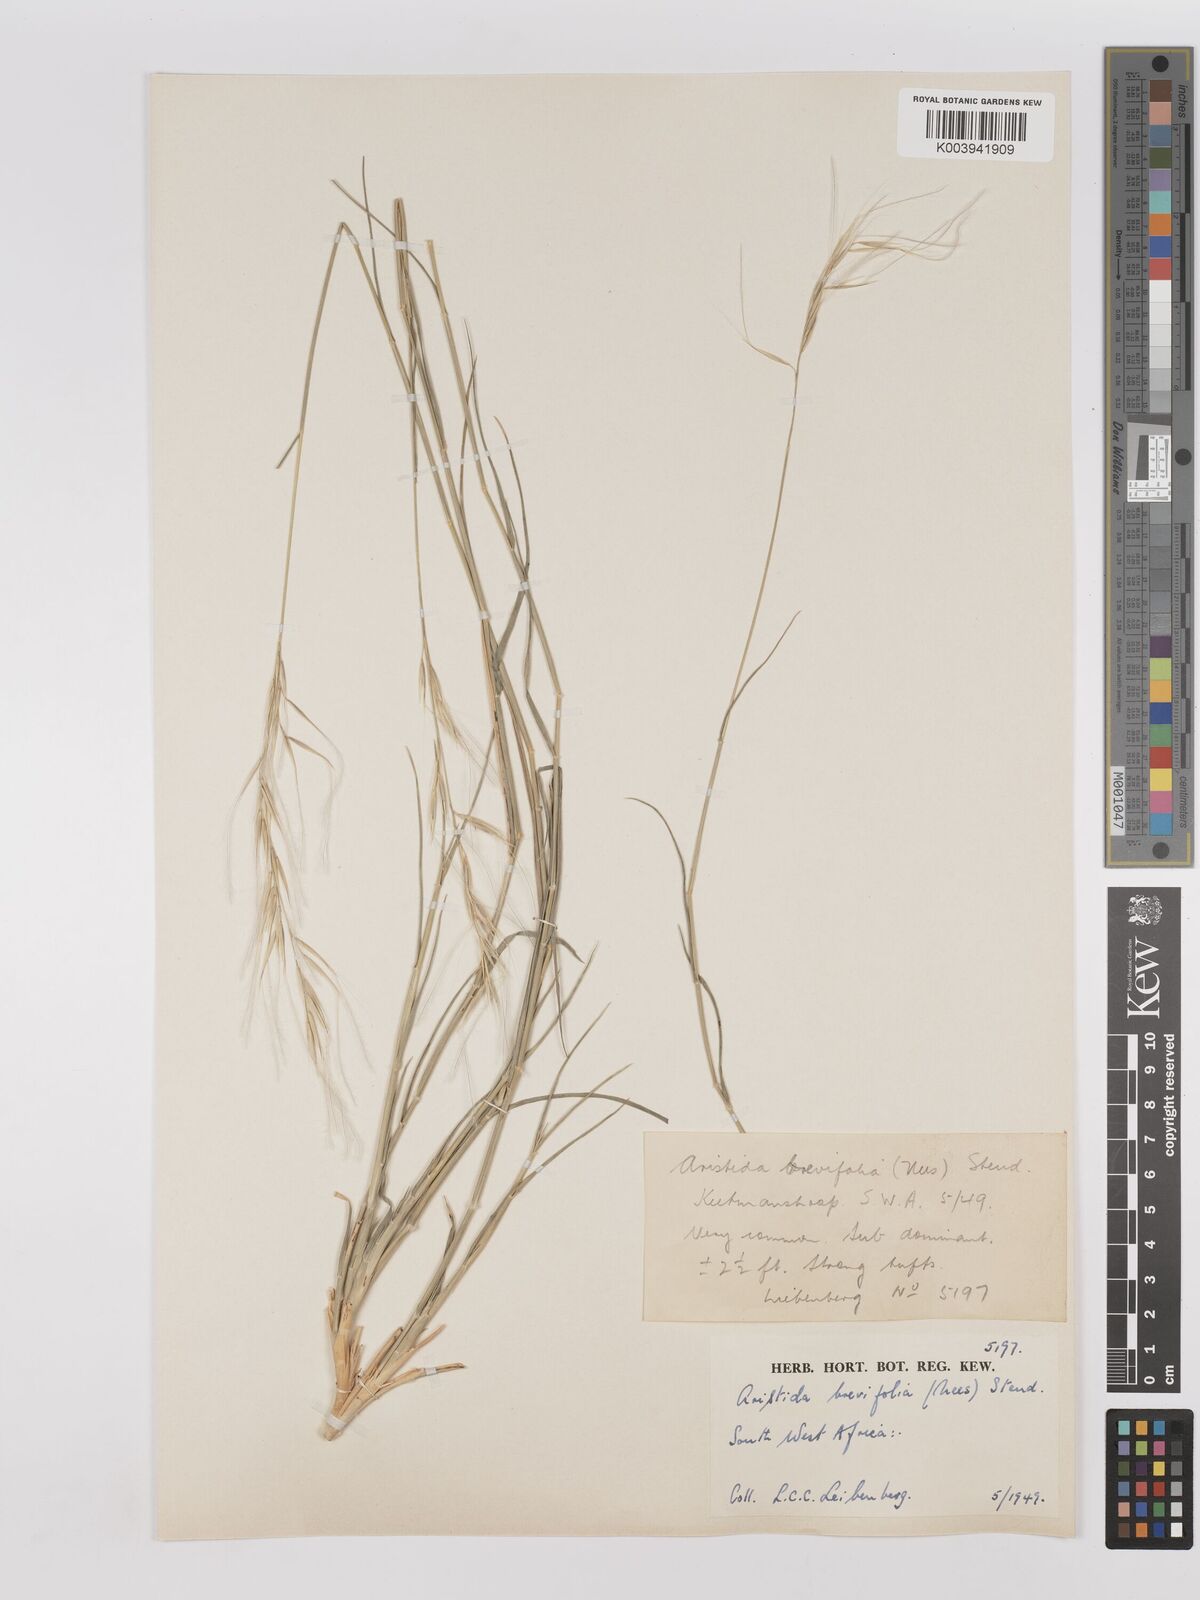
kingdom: Plantae
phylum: Tracheophyta
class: Liliopsida
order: Poales
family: Poaceae
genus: Stipagrostis
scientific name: Stipagrostis brevifolia
